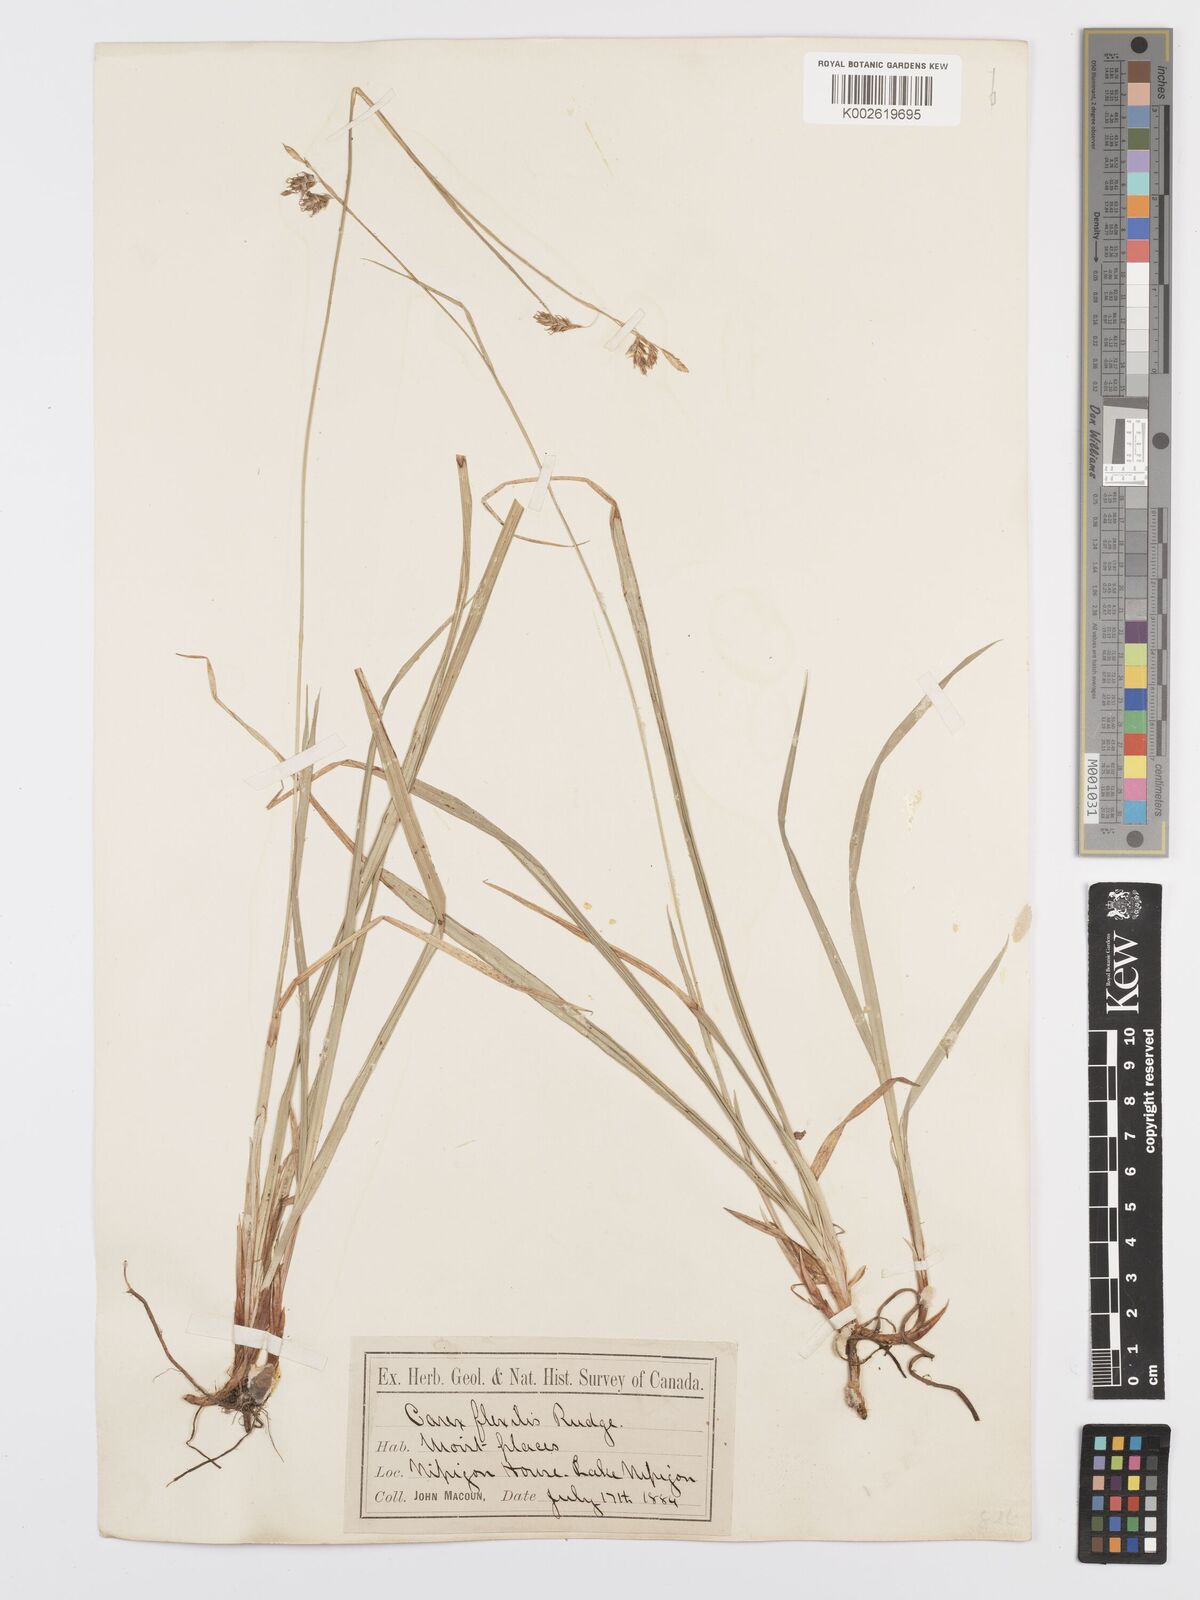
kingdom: Plantae
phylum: Tracheophyta
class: Liliopsida
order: Poales
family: Cyperaceae
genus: Carex
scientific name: Carex castanea
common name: Chestnut sedge
